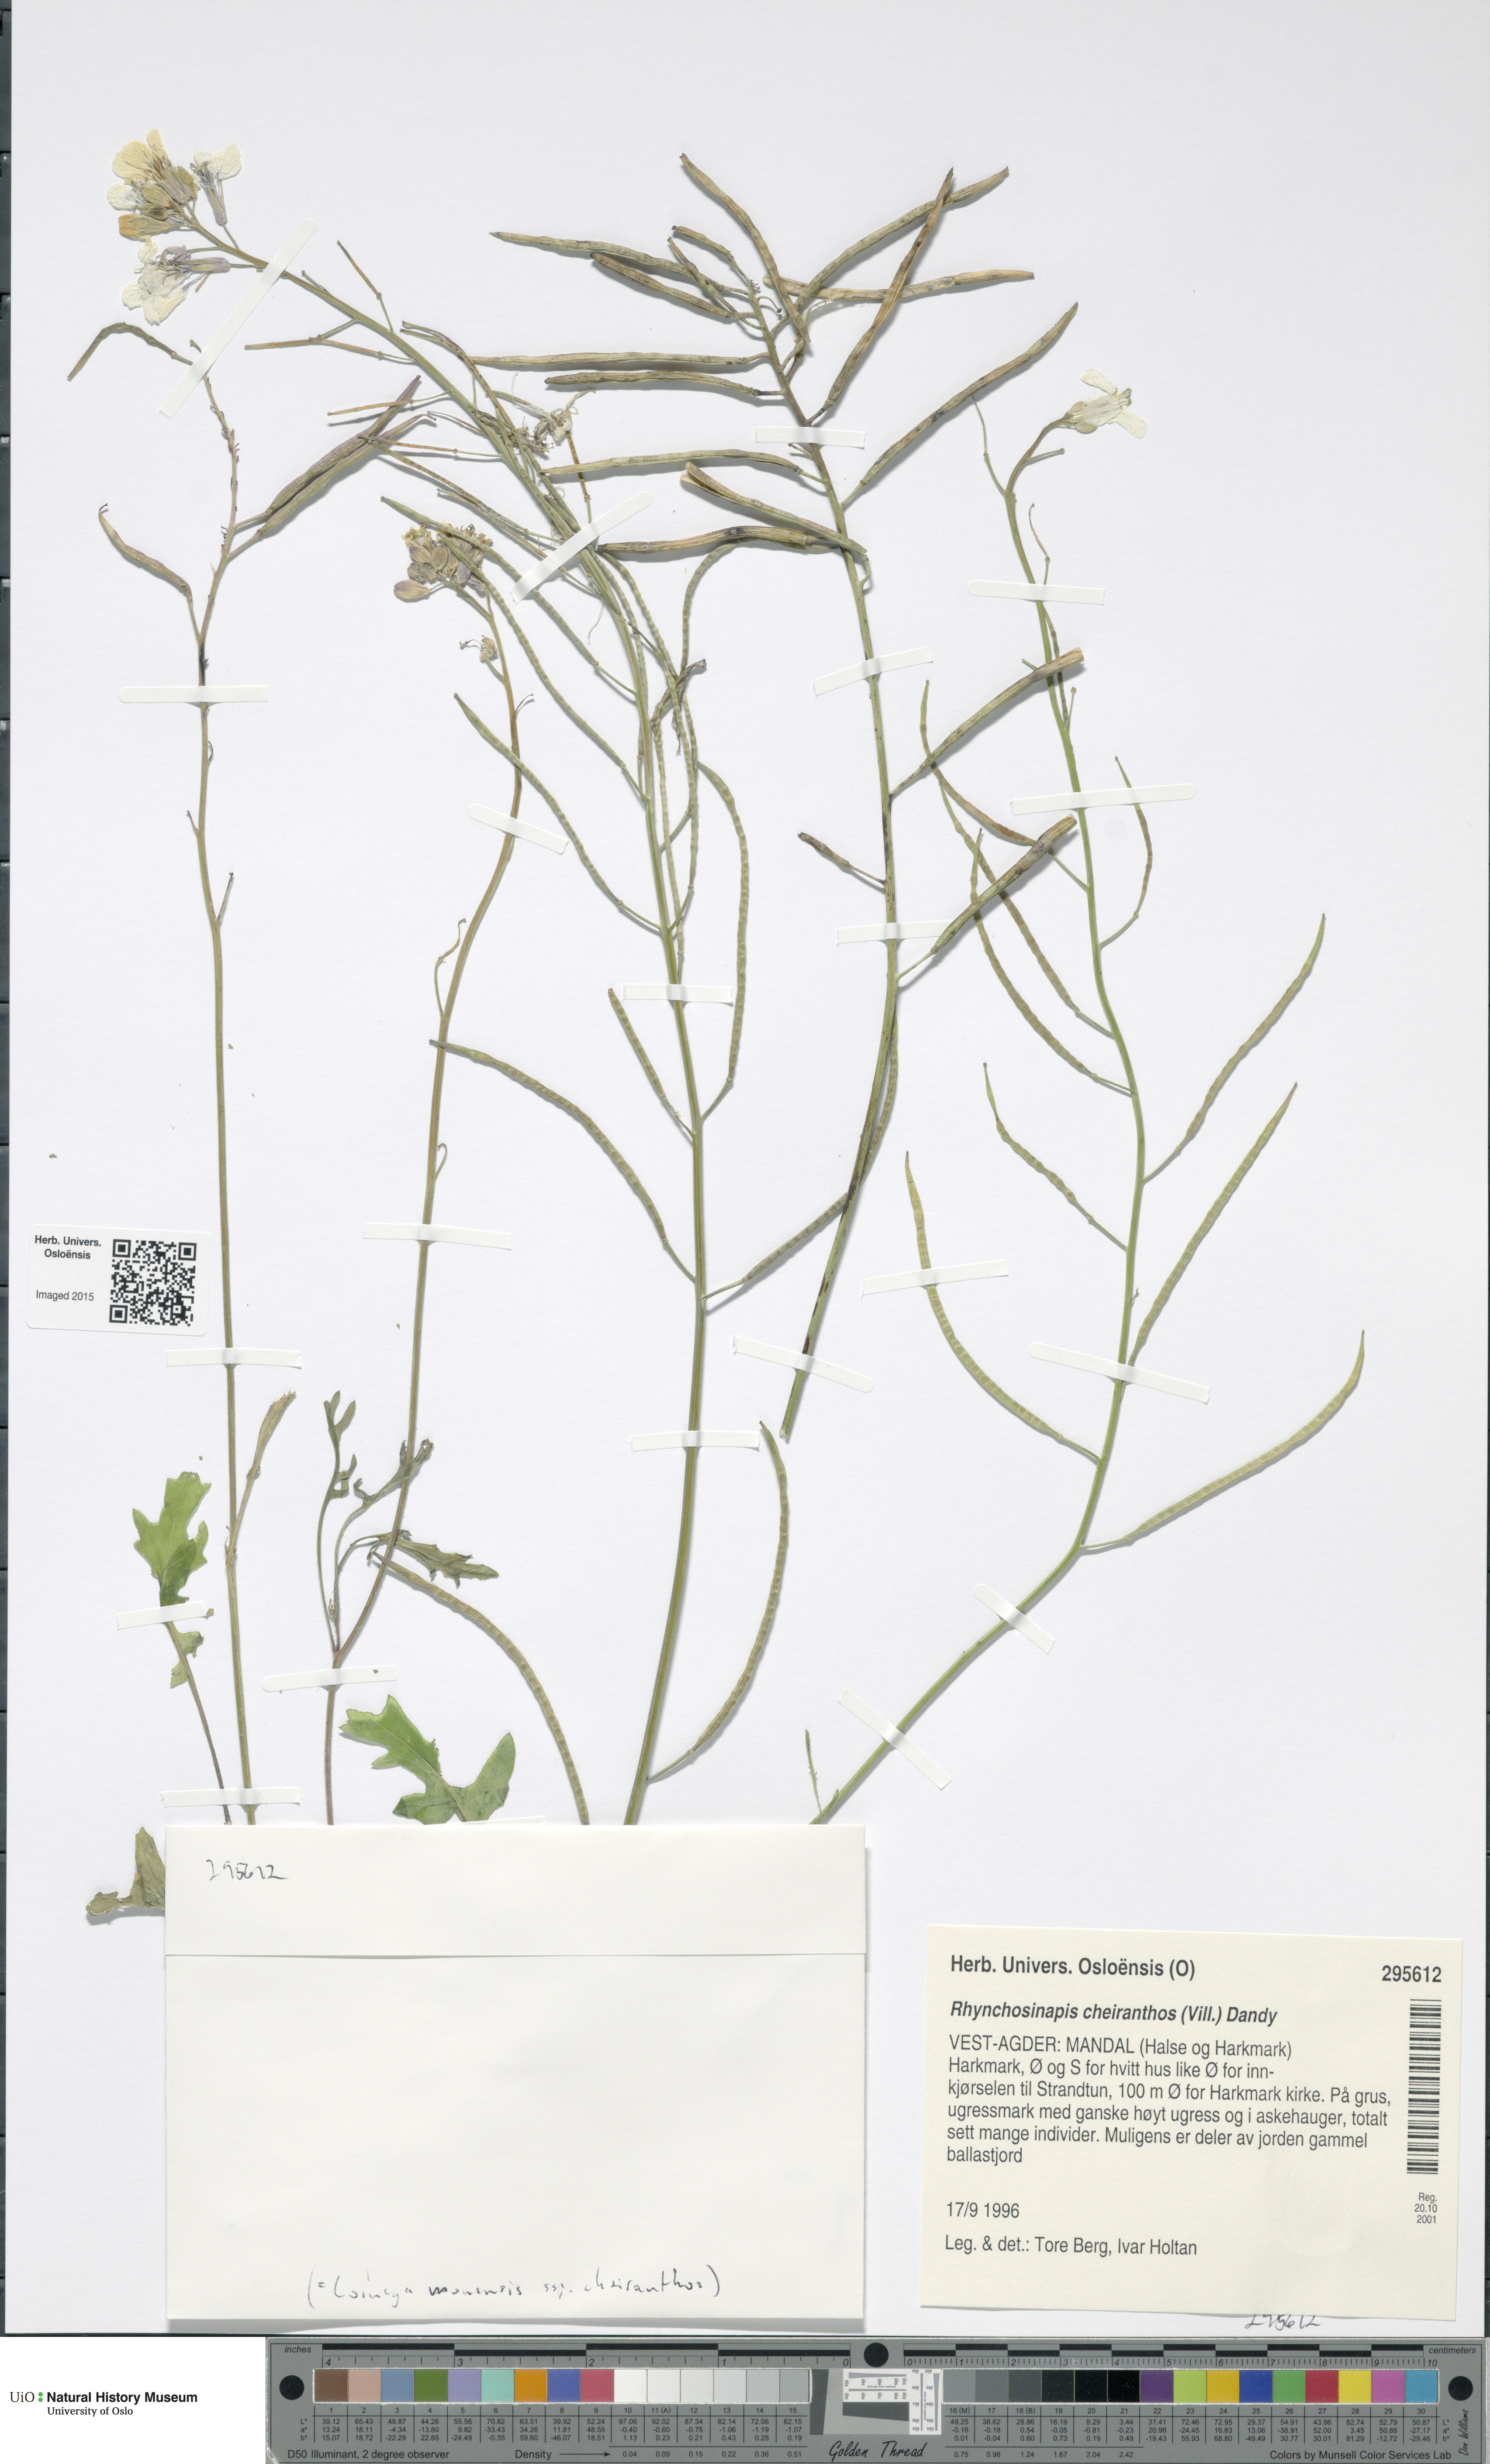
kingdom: Plantae
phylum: Tracheophyta
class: Magnoliopsida
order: Brassicales
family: Brassicaceae
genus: Coincya
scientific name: Coincya monensis
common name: Star-mustard
